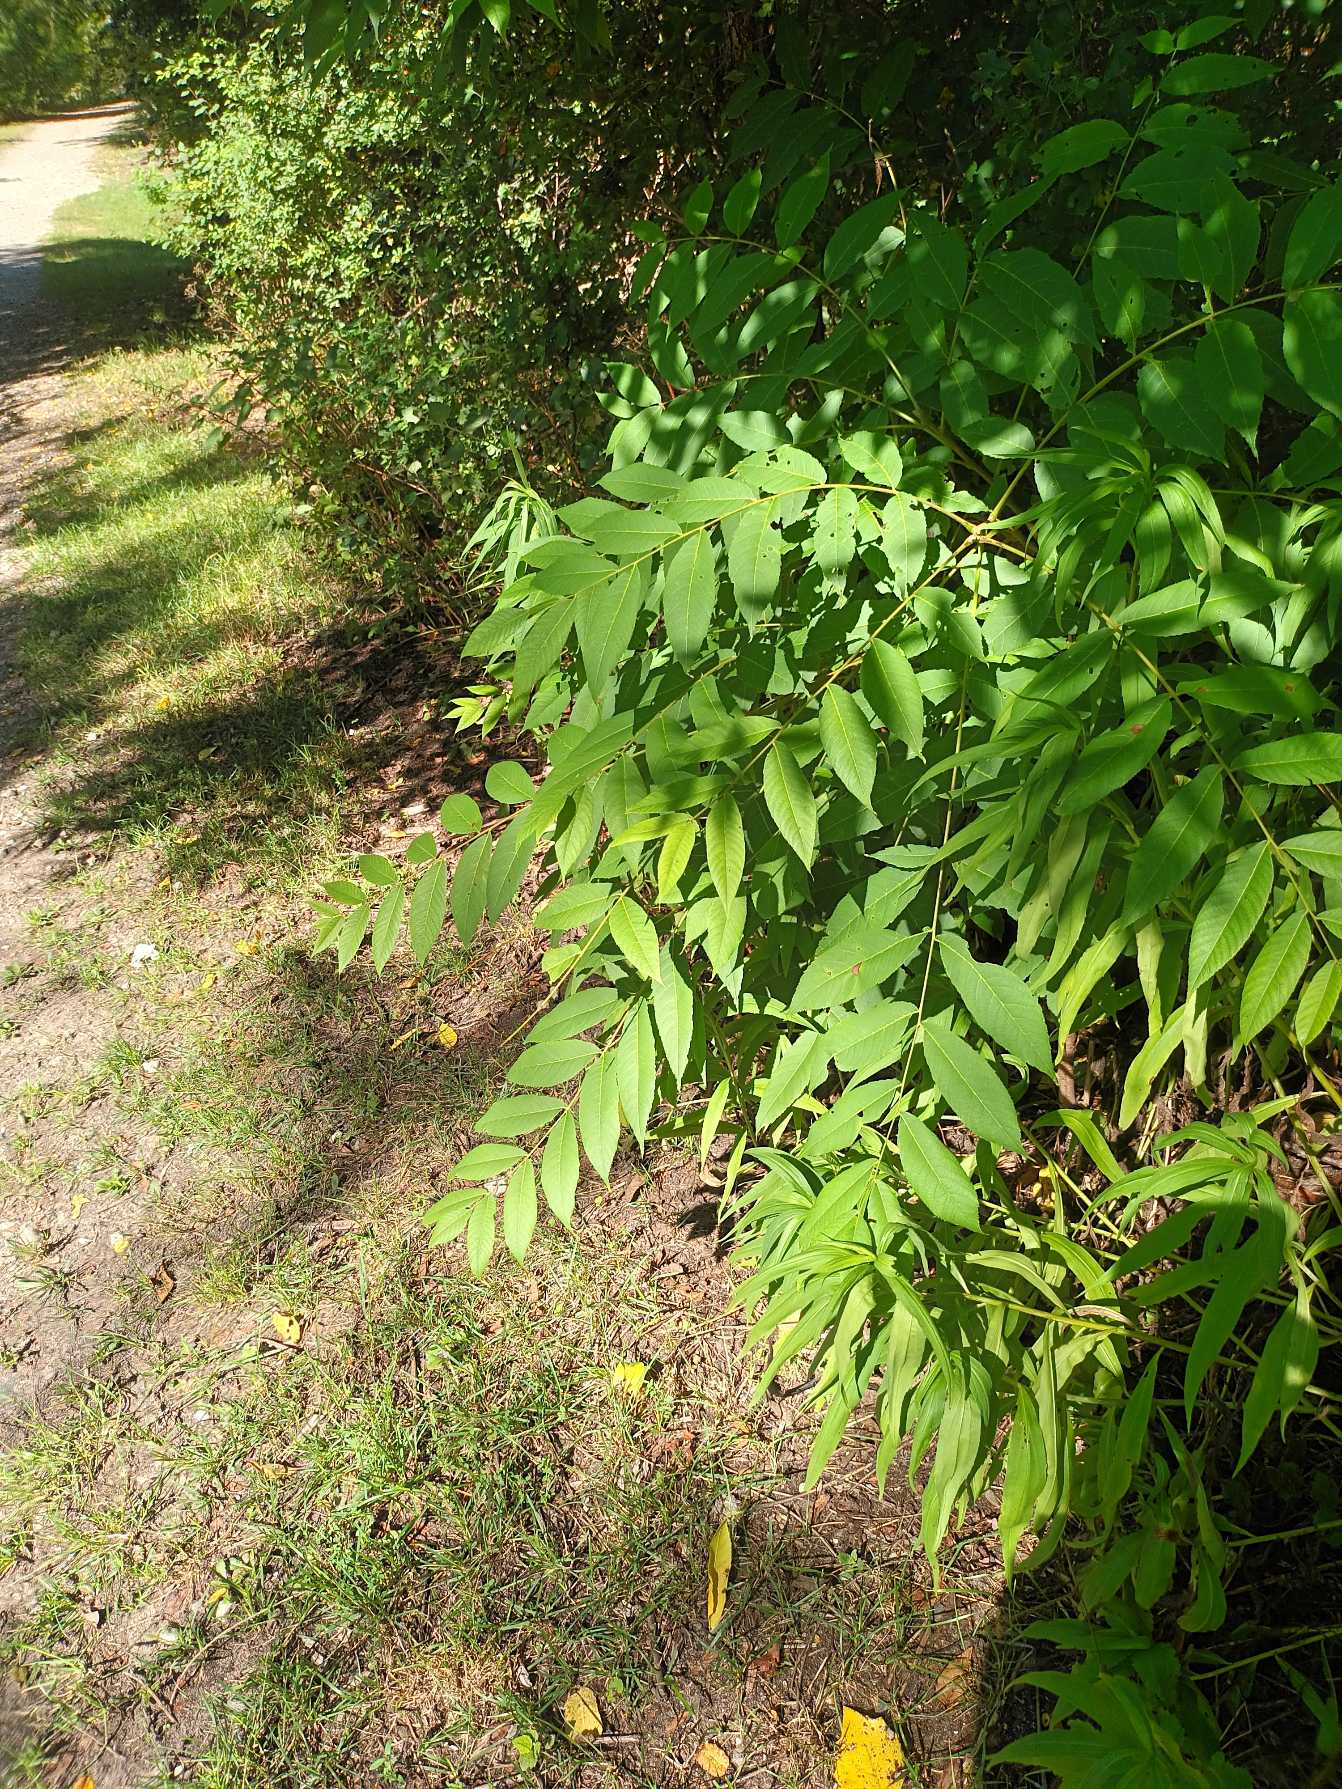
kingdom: Plantae
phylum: Tracheophyta
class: Magnoliopsida
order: Fagales
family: Juglandaceae
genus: Juglans
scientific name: Juglans nigra
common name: Sort valnød
